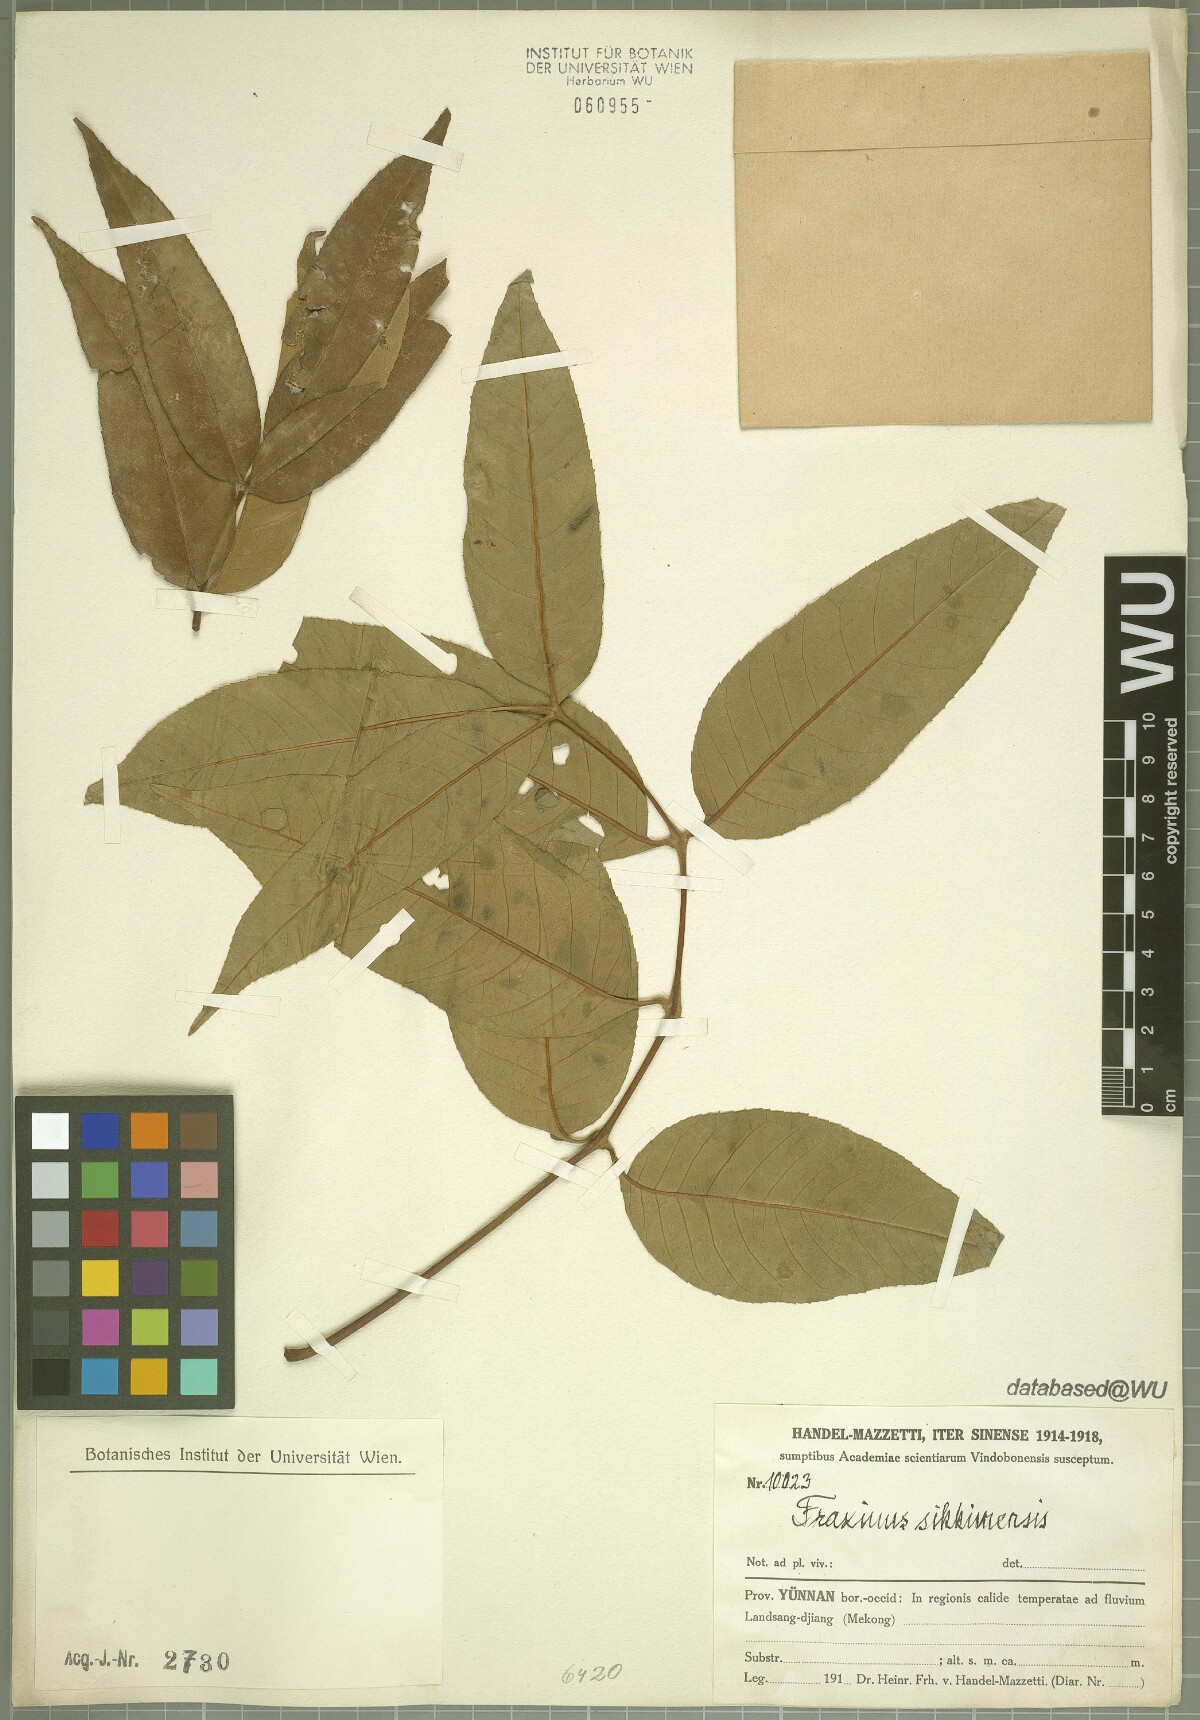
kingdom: Plantae
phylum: Tracheophyta
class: Magnoliopsida
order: Lamiales
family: Oleaceae
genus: Fraxinus
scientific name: Fraxinus suaveolens
